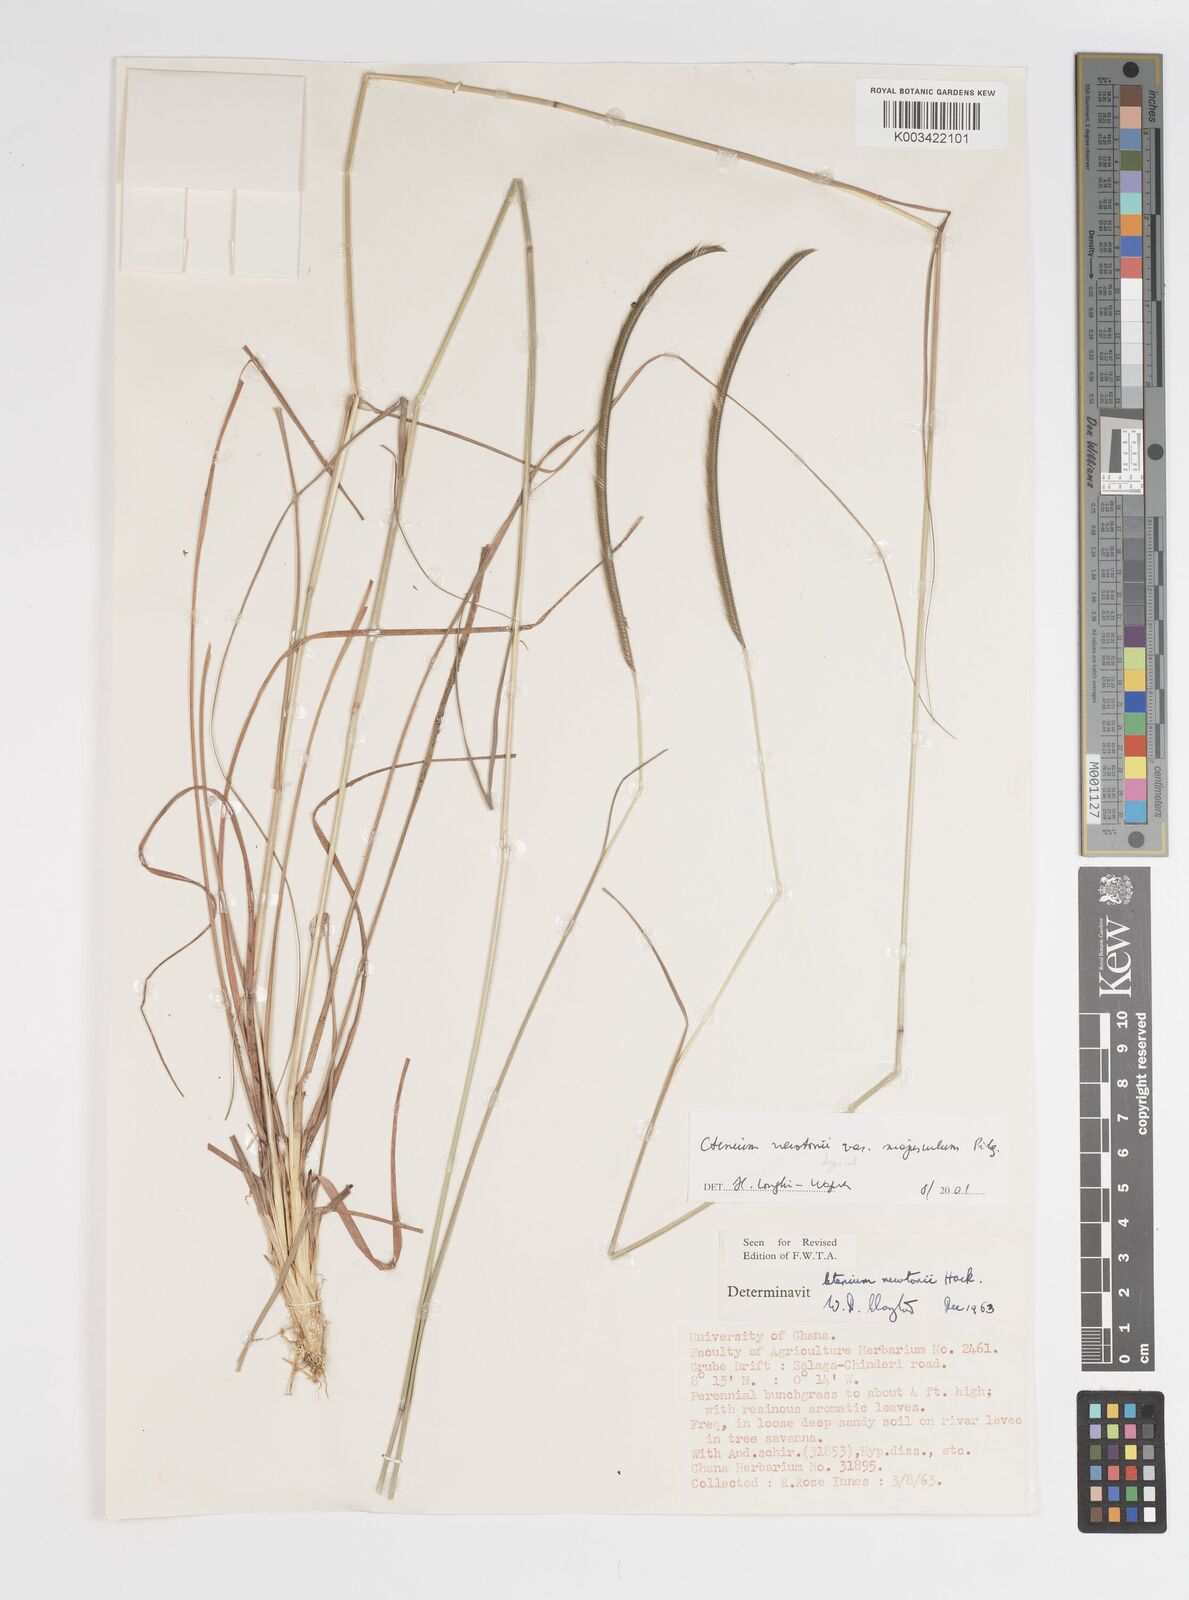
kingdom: Plantae
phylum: Tracheophyta
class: Liliopsida
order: Poales
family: Poaceae
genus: Ctenium
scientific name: Ctenium newtonii
